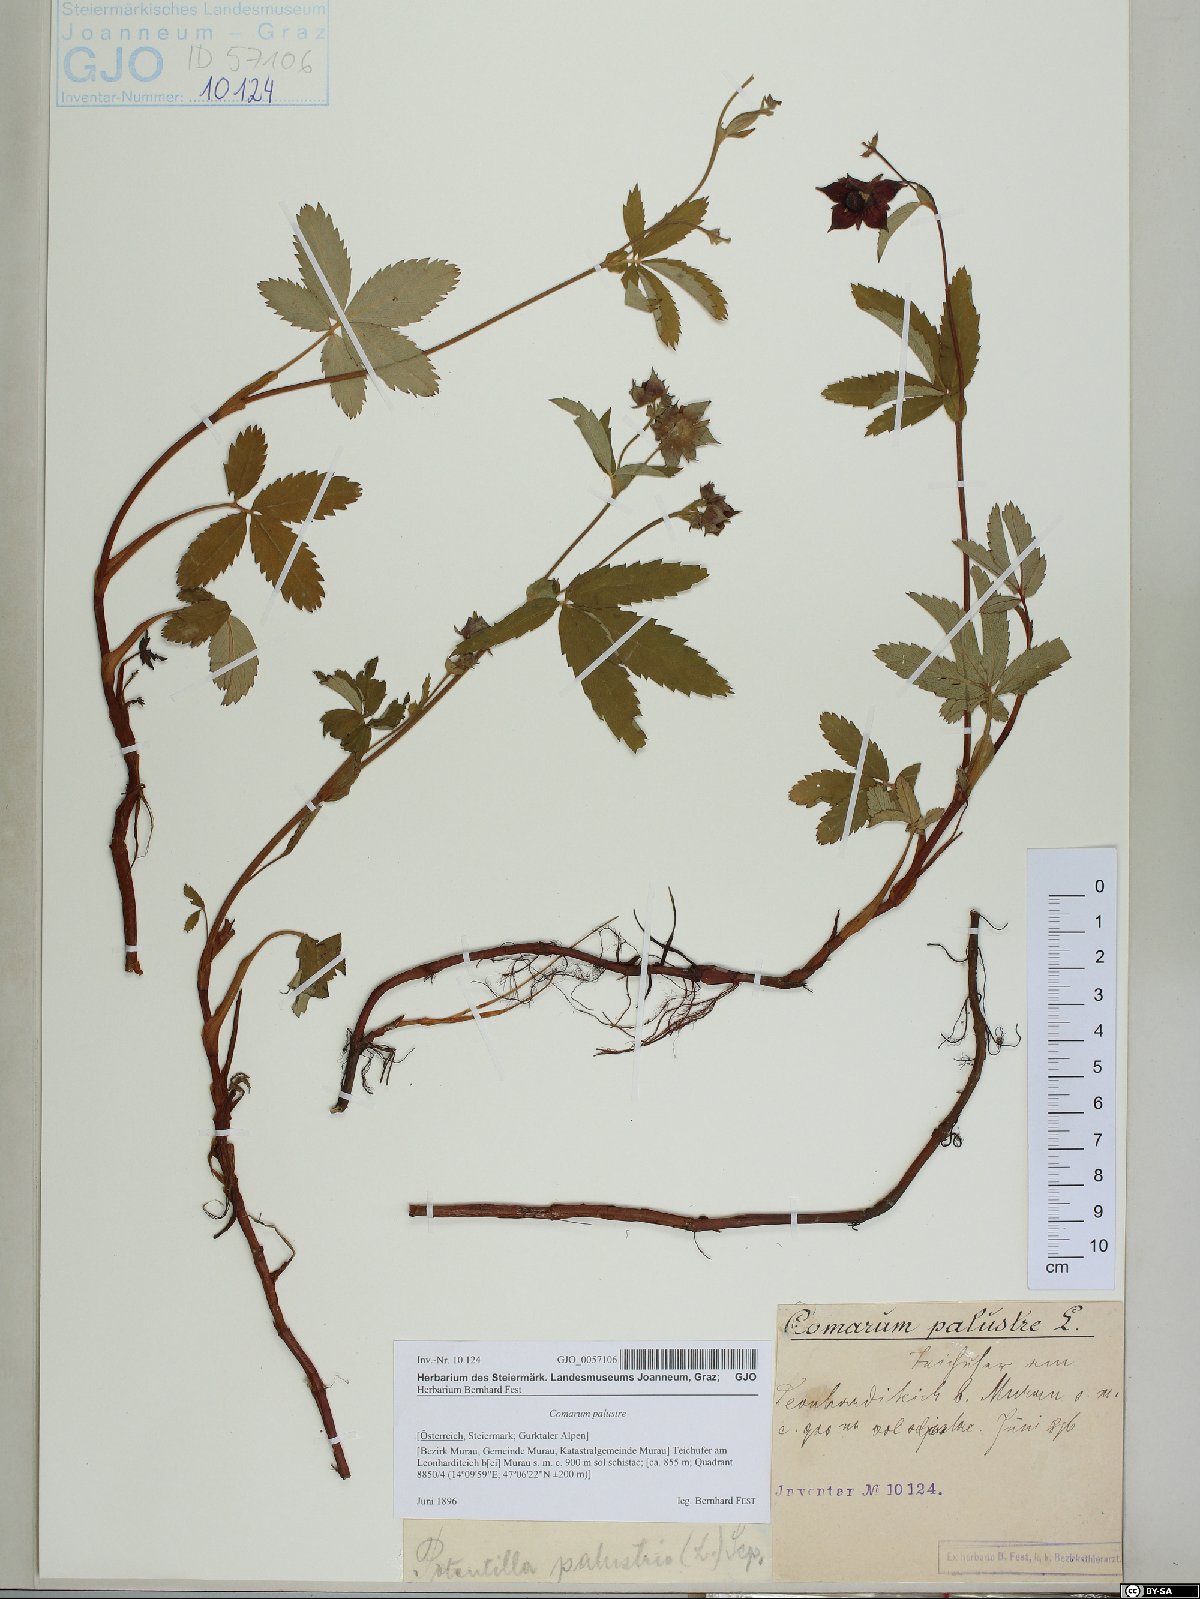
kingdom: Plantae
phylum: Tracheophyta
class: Magnoliopsida
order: Rosales
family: Rosaceae
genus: Comarum
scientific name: Comarum palustre
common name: Marsh cinquefoil
